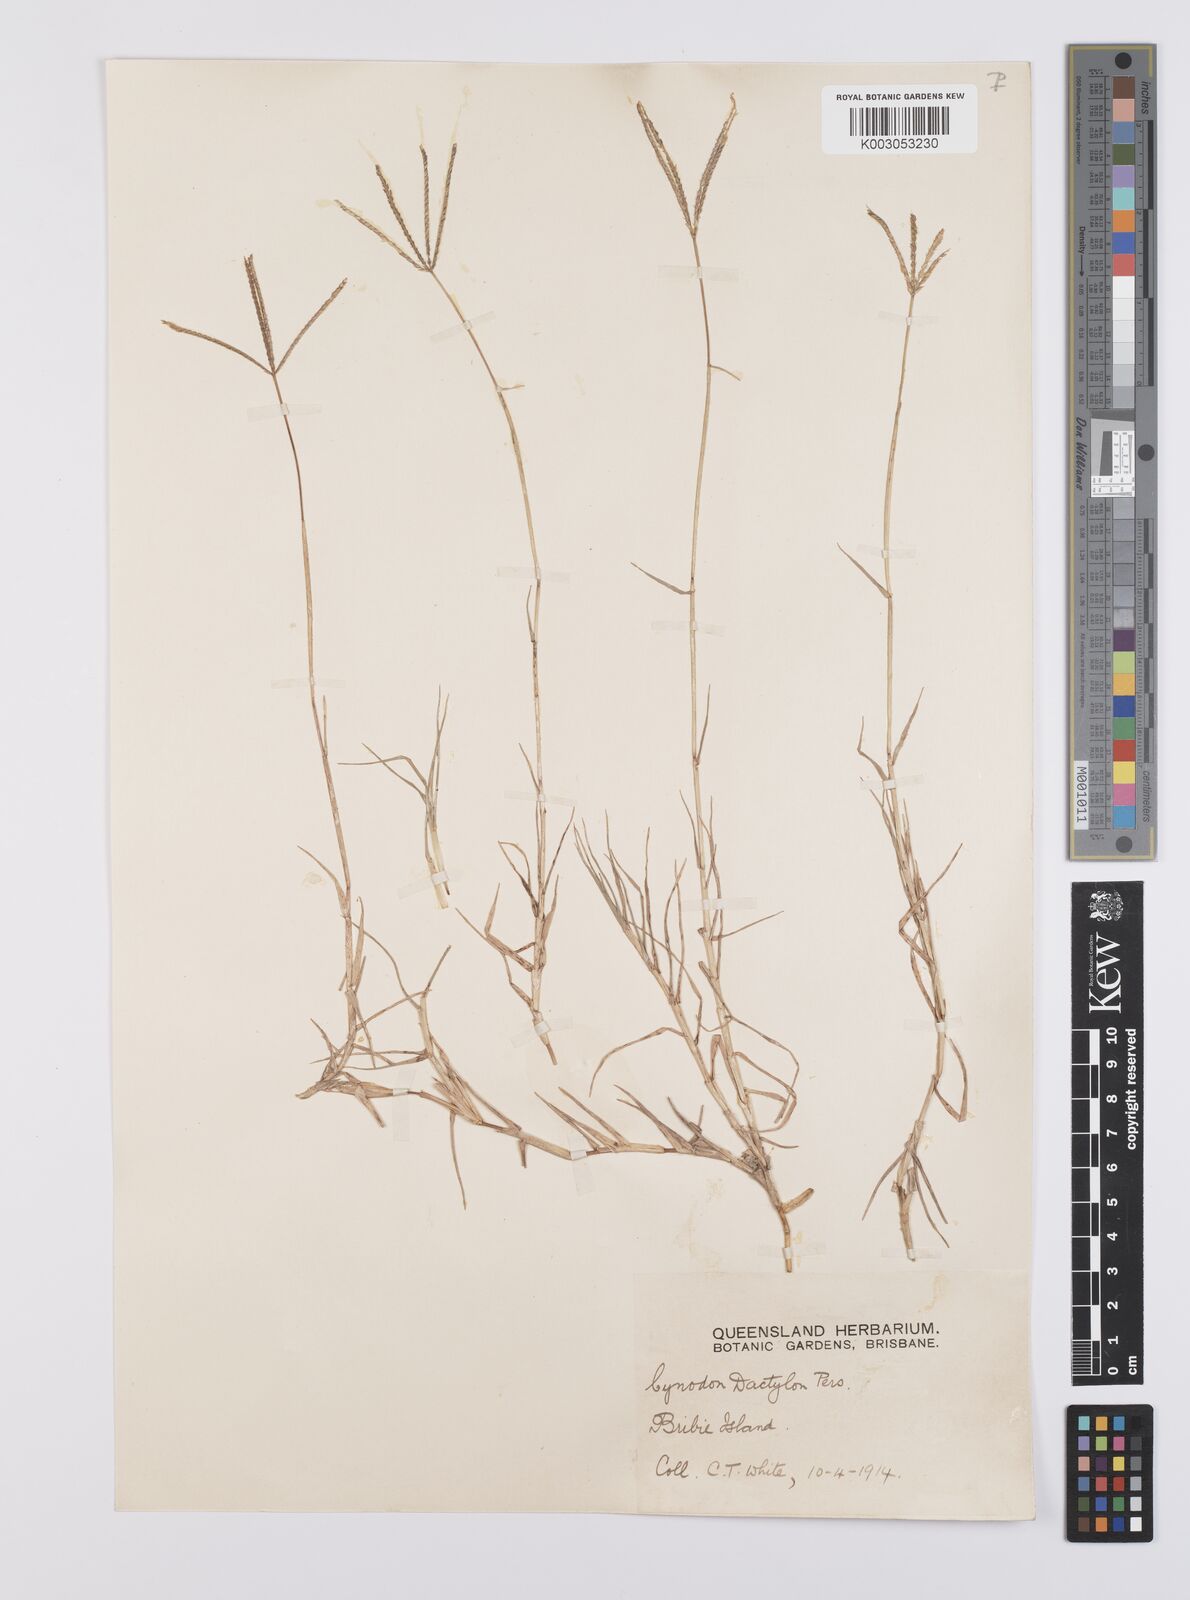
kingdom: Plantae
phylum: Tracheophyta
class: Liliopsida
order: Poales
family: Poaceae
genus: Cynodon
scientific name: Cynodon dactylon
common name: Bermuda grass
